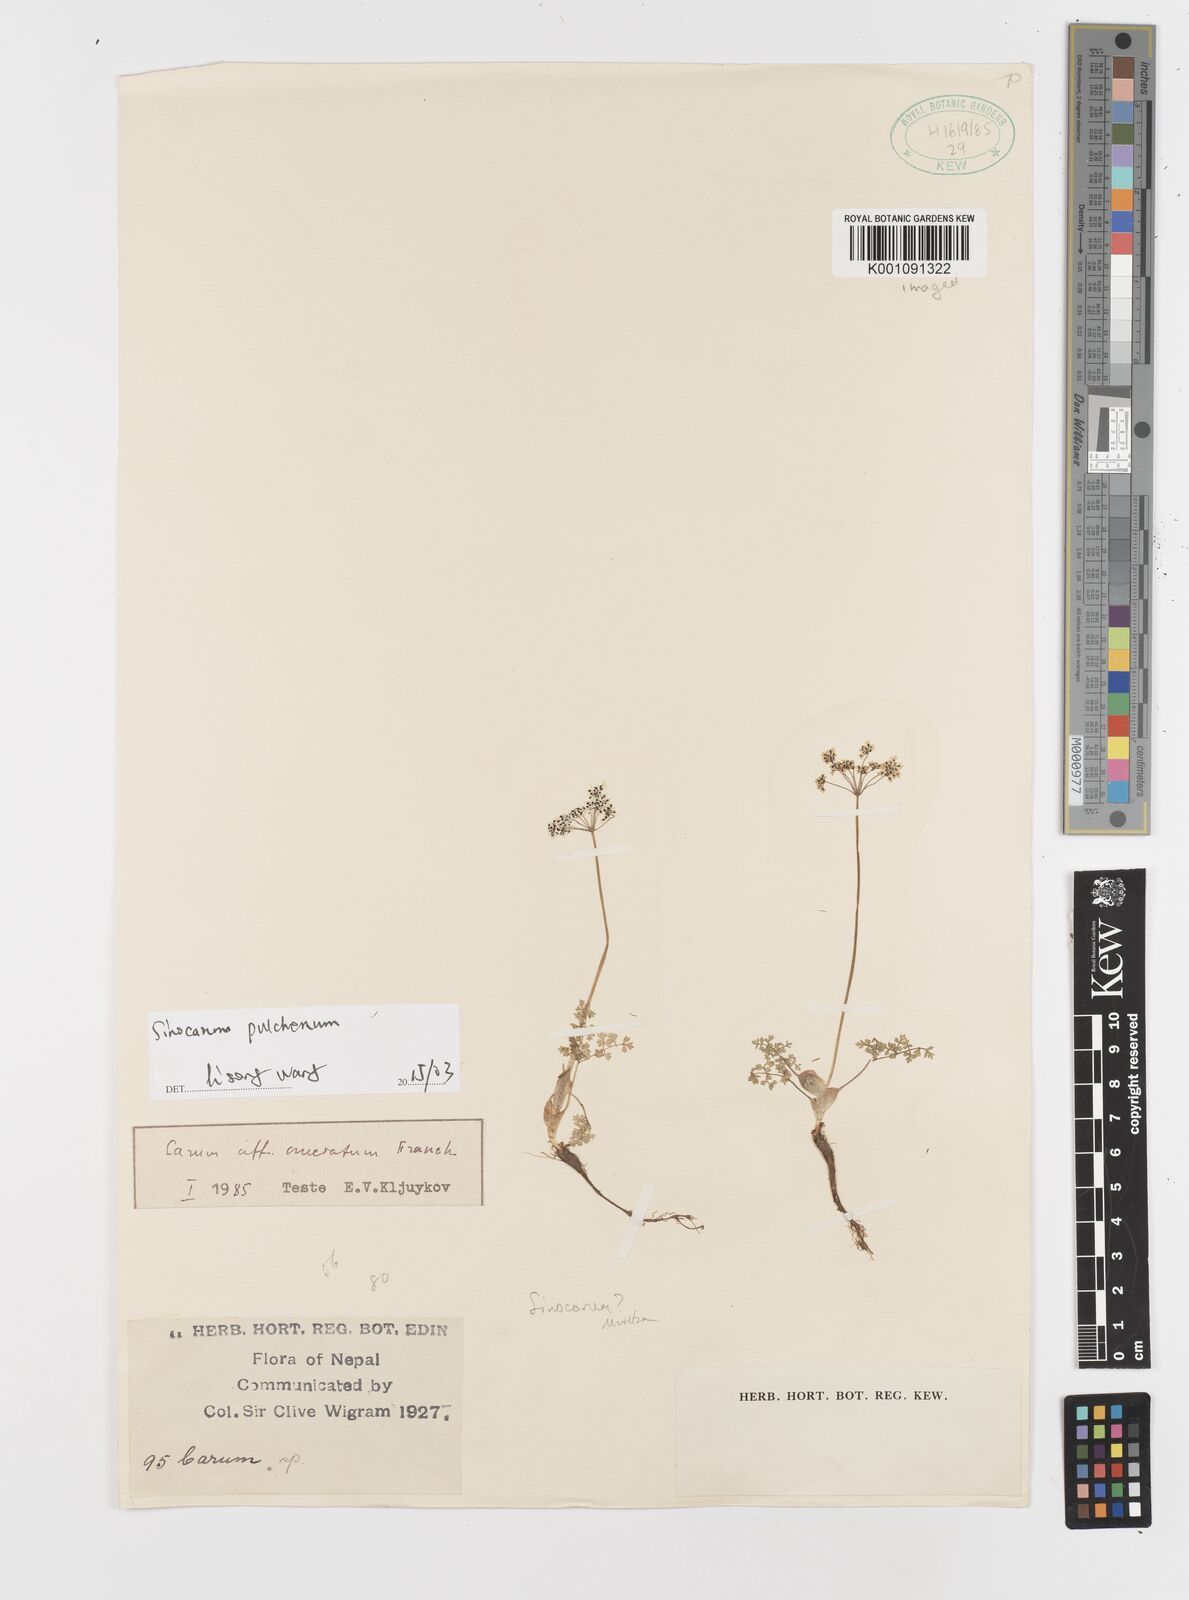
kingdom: Plantae
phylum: Tracheophyta
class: Magnoliopsida
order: Apiales
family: Apiaceae
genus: Sinocarum
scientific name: Sinocarum pulchellum
